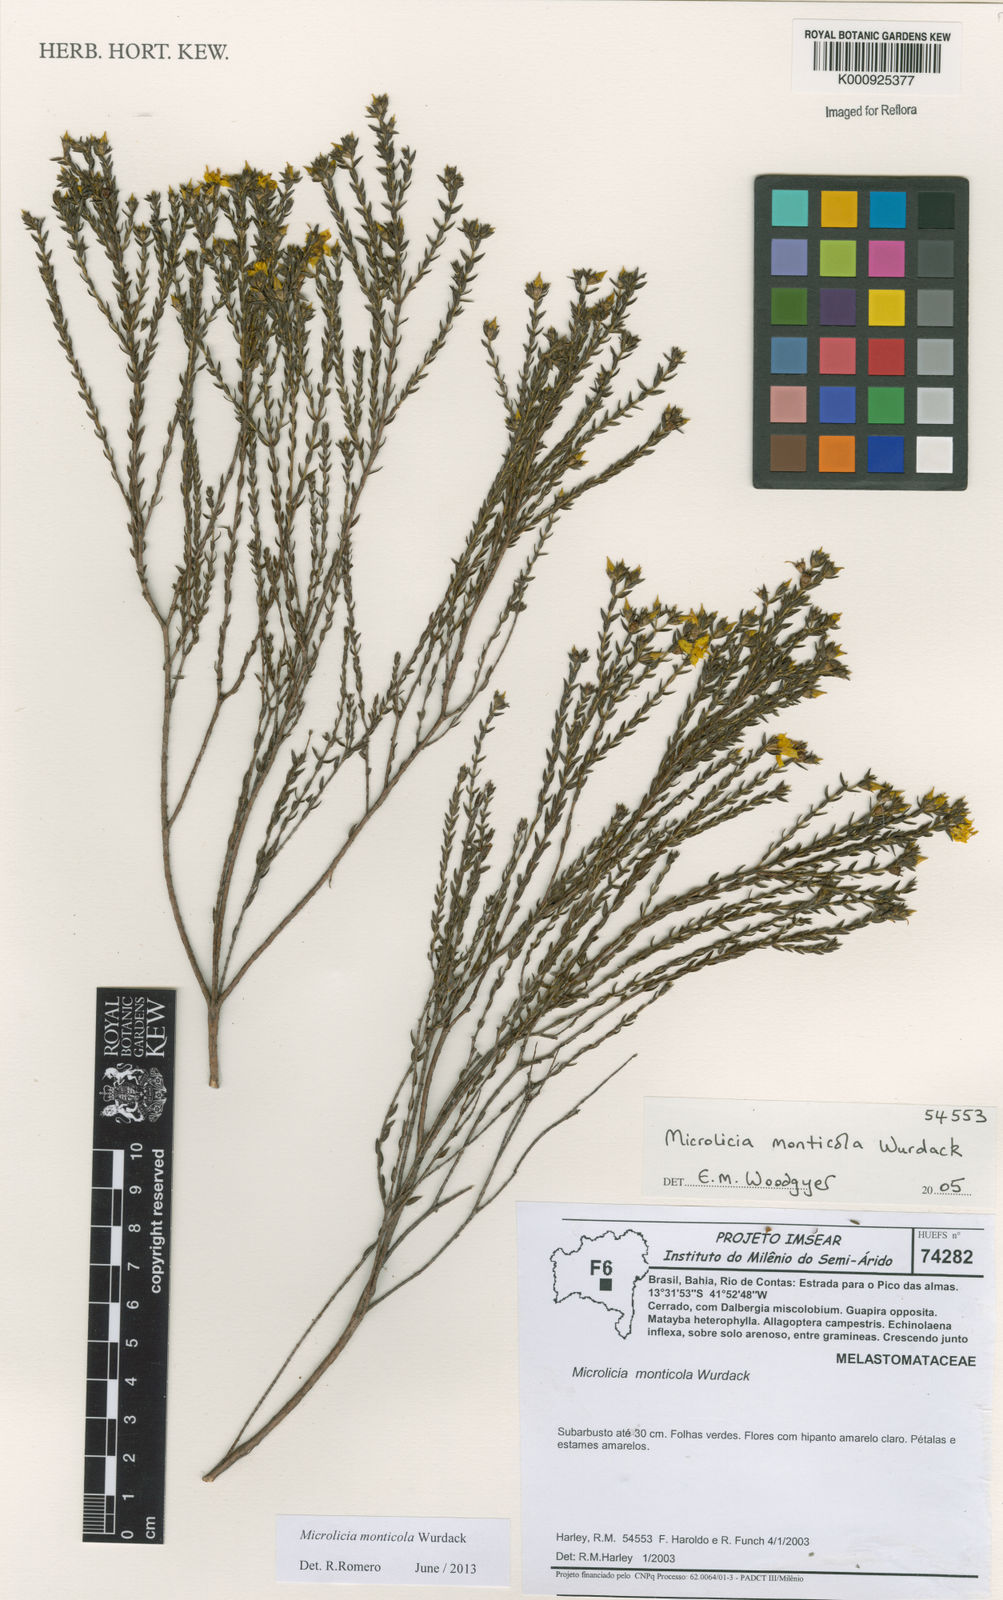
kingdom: Plantae
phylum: Tracheophyta
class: Magnoliopsida
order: Myrtales
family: Melastomataceae
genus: Microlicia
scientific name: Microlicia monticola
